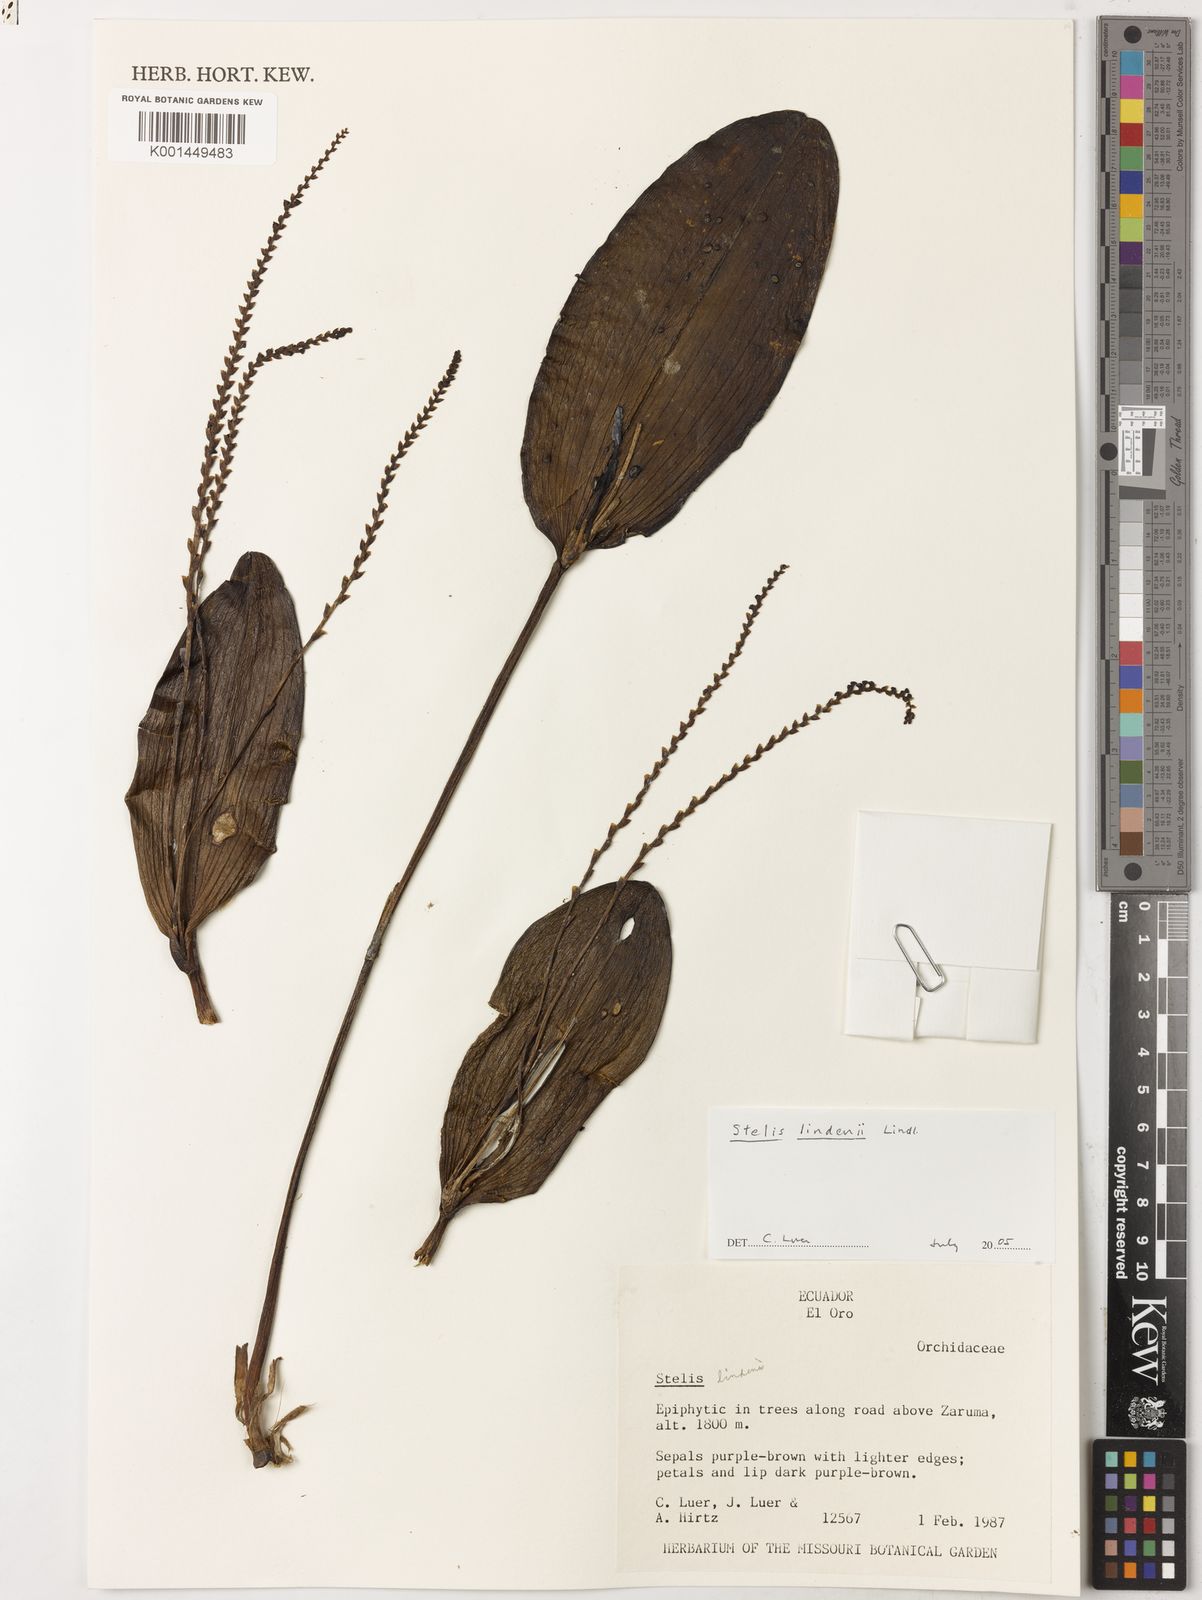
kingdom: Plantae
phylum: Tracheophyta
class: Liliopsida
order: Asparagales
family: Orchidaceae
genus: Stelis
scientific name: Stelis lindenii
